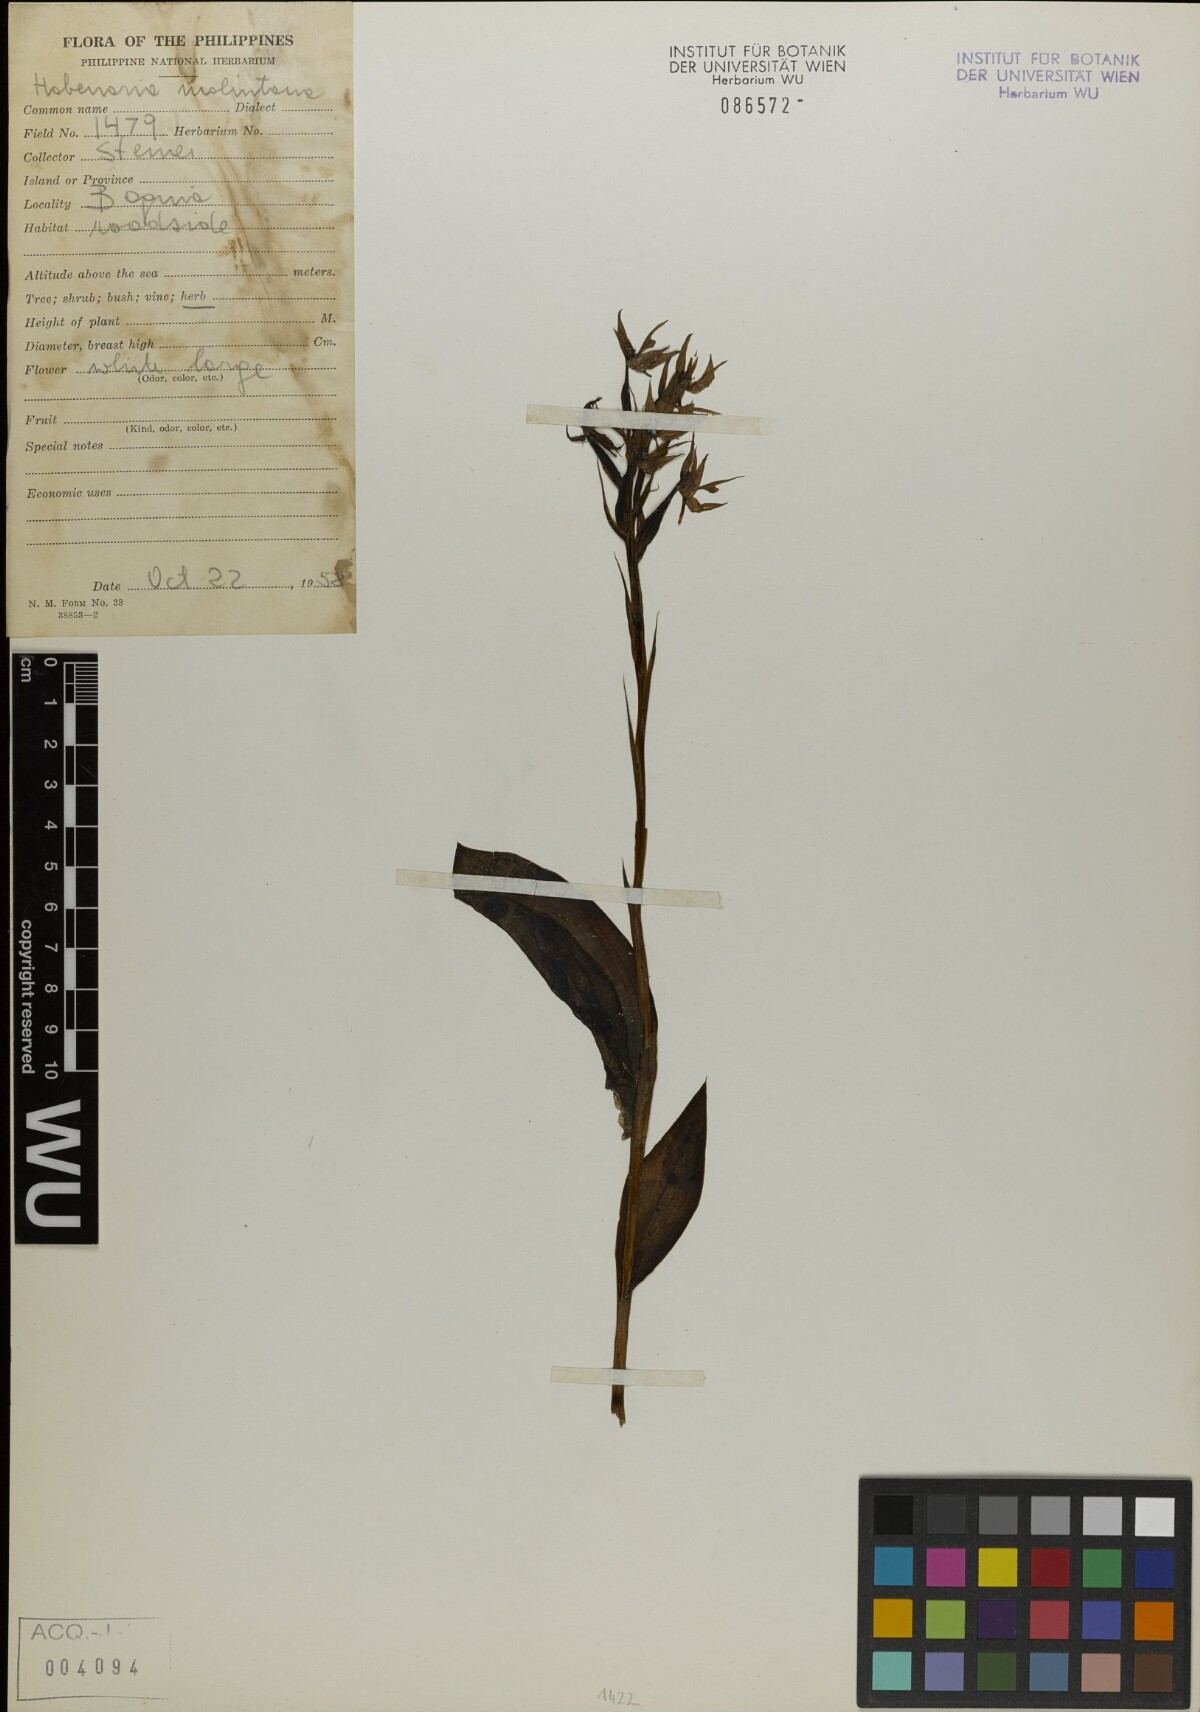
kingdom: Plantae
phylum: Tracheophyta
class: Liliopsida
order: Asparagales
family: Orchidaceae
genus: Habenaria
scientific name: Habenaria malintana
